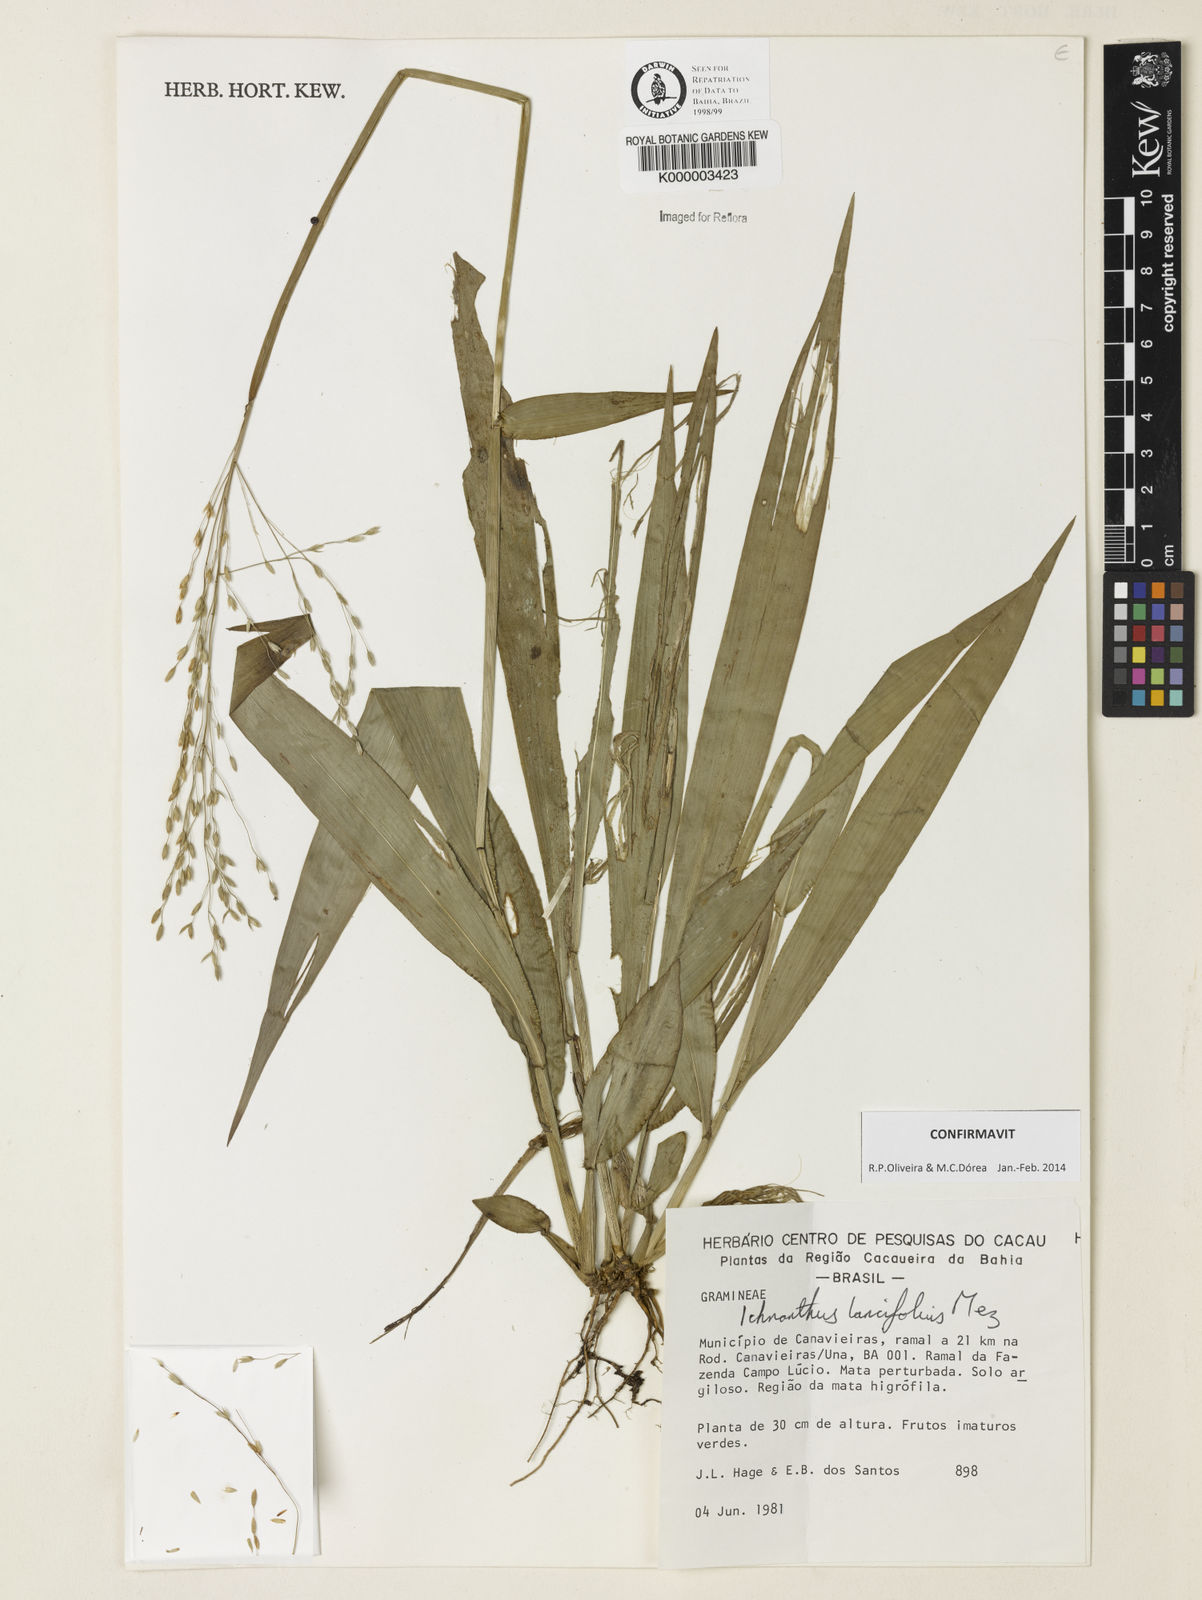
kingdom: Plantae
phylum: Tracheophyta
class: Liliopsida
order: Poales
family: Poaceae
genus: Ichnanthus
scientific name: Ichnanthus lancifolius
